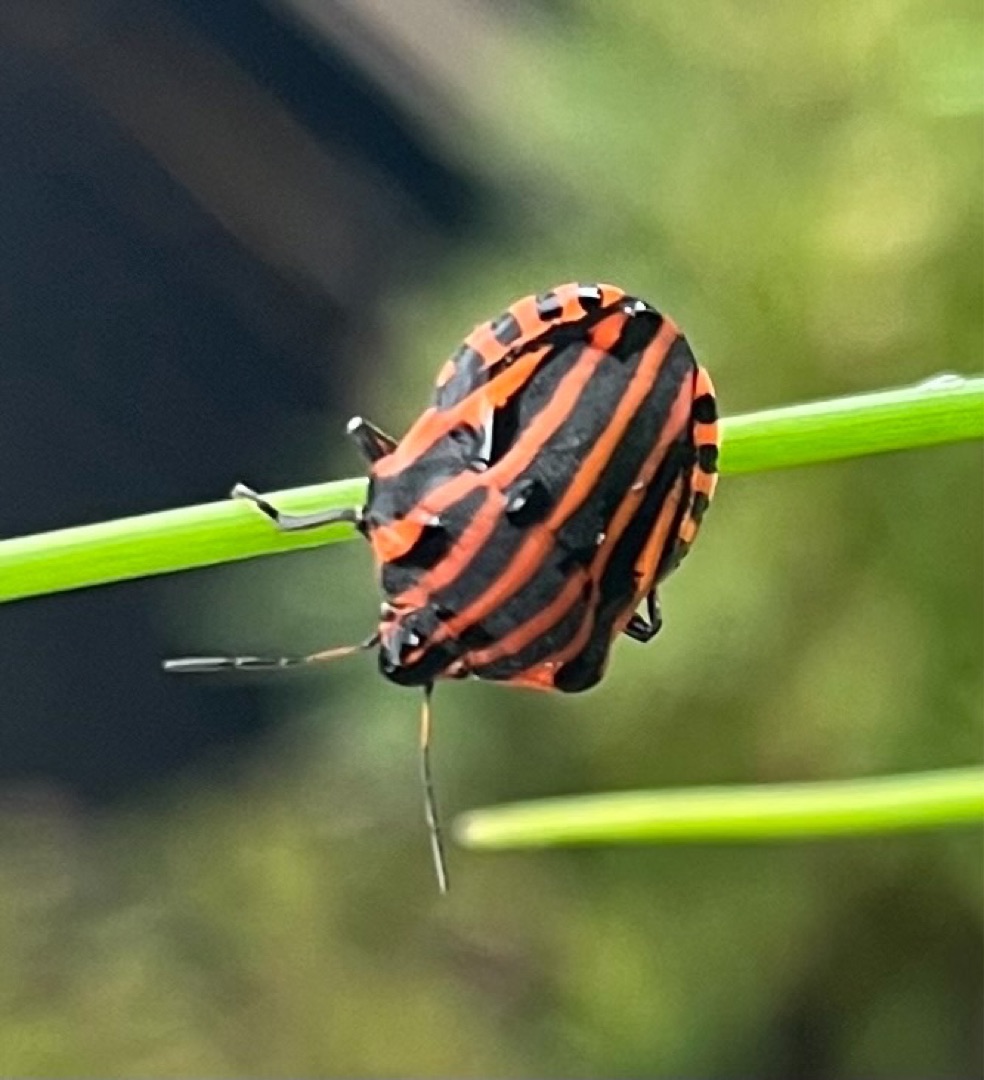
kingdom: Animalia
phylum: Arthropoda
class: Insecta
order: Hemiptera
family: Pentatomidae
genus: Graphosoma
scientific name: Graphosoma italicum
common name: Stribetæge
